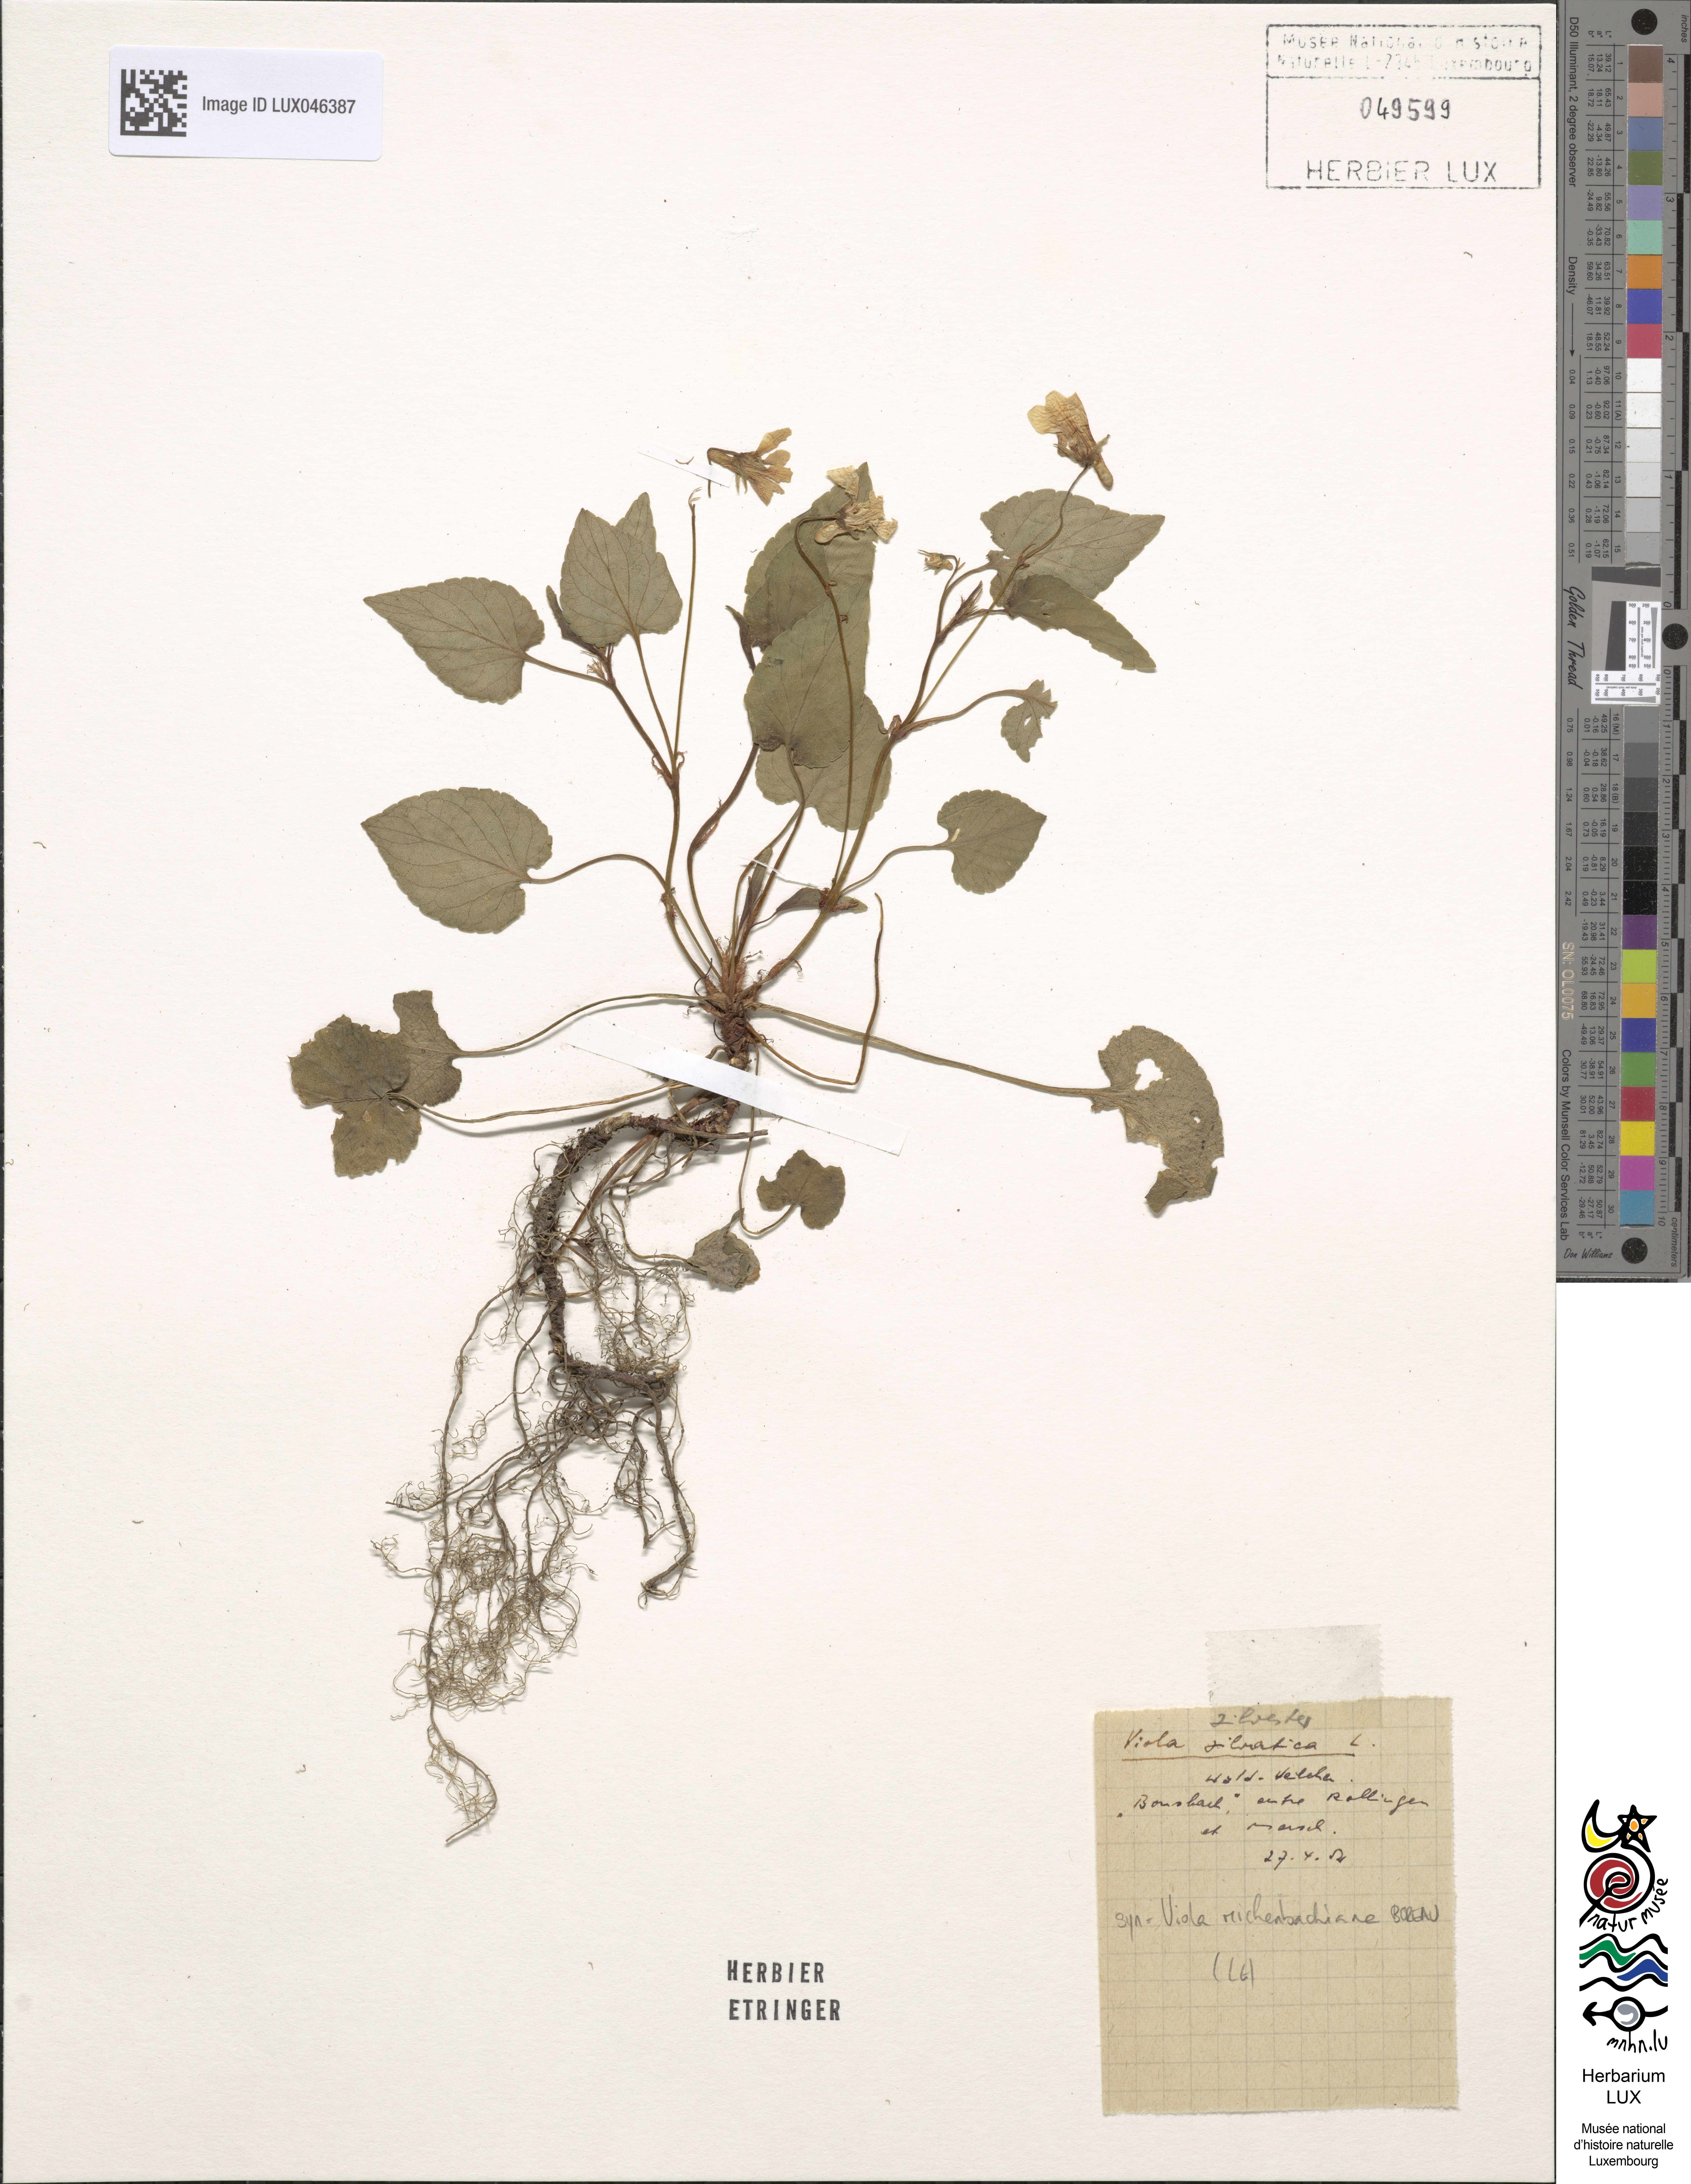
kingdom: Plantae
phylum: Tracheophyta
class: Magnoliopsida
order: Malpighiales
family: Violaceae
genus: Viola
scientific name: Viola canina
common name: Heath dog-violet
